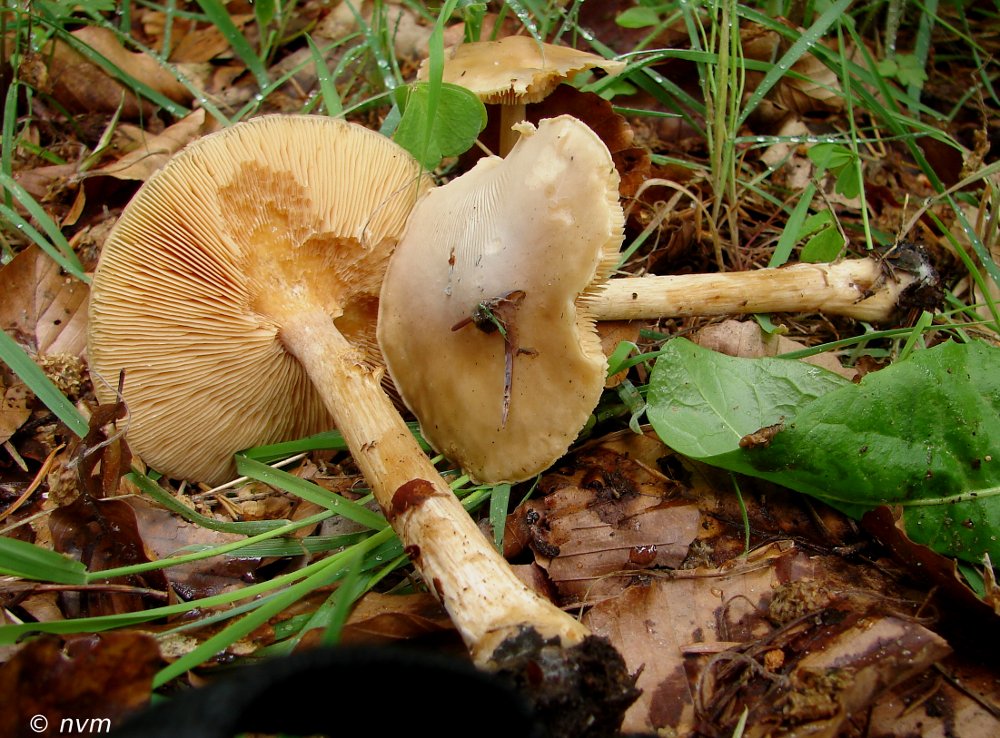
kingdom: Fungi
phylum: Basidiomycota
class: Agaricomycetes
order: Agaricales
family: Tricholomataceae
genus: Melanoleuca
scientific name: Melanoleuca cognata
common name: gyldengrå munkehat
